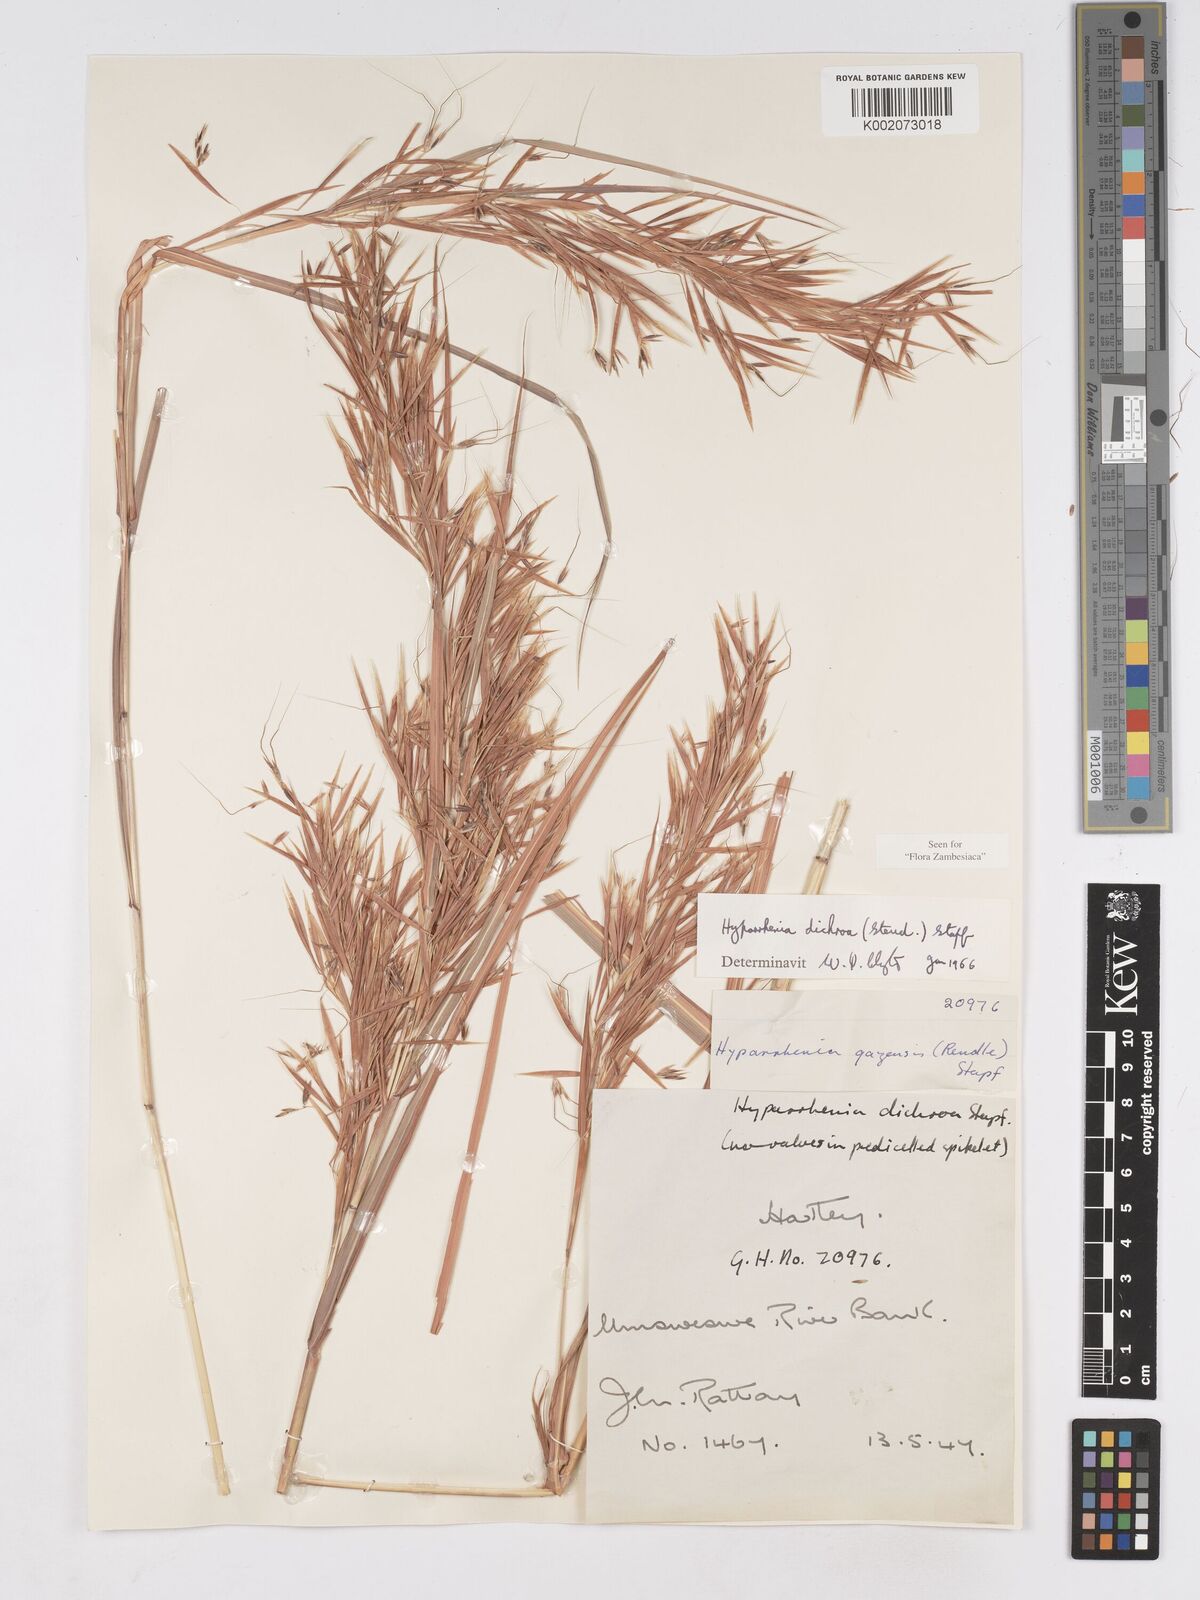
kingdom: Plantae
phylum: Tracheophyta
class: Liliopsida
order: Poales
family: Poaceae
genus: Hyparrhenia
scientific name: Hyparrhenia dichroa
